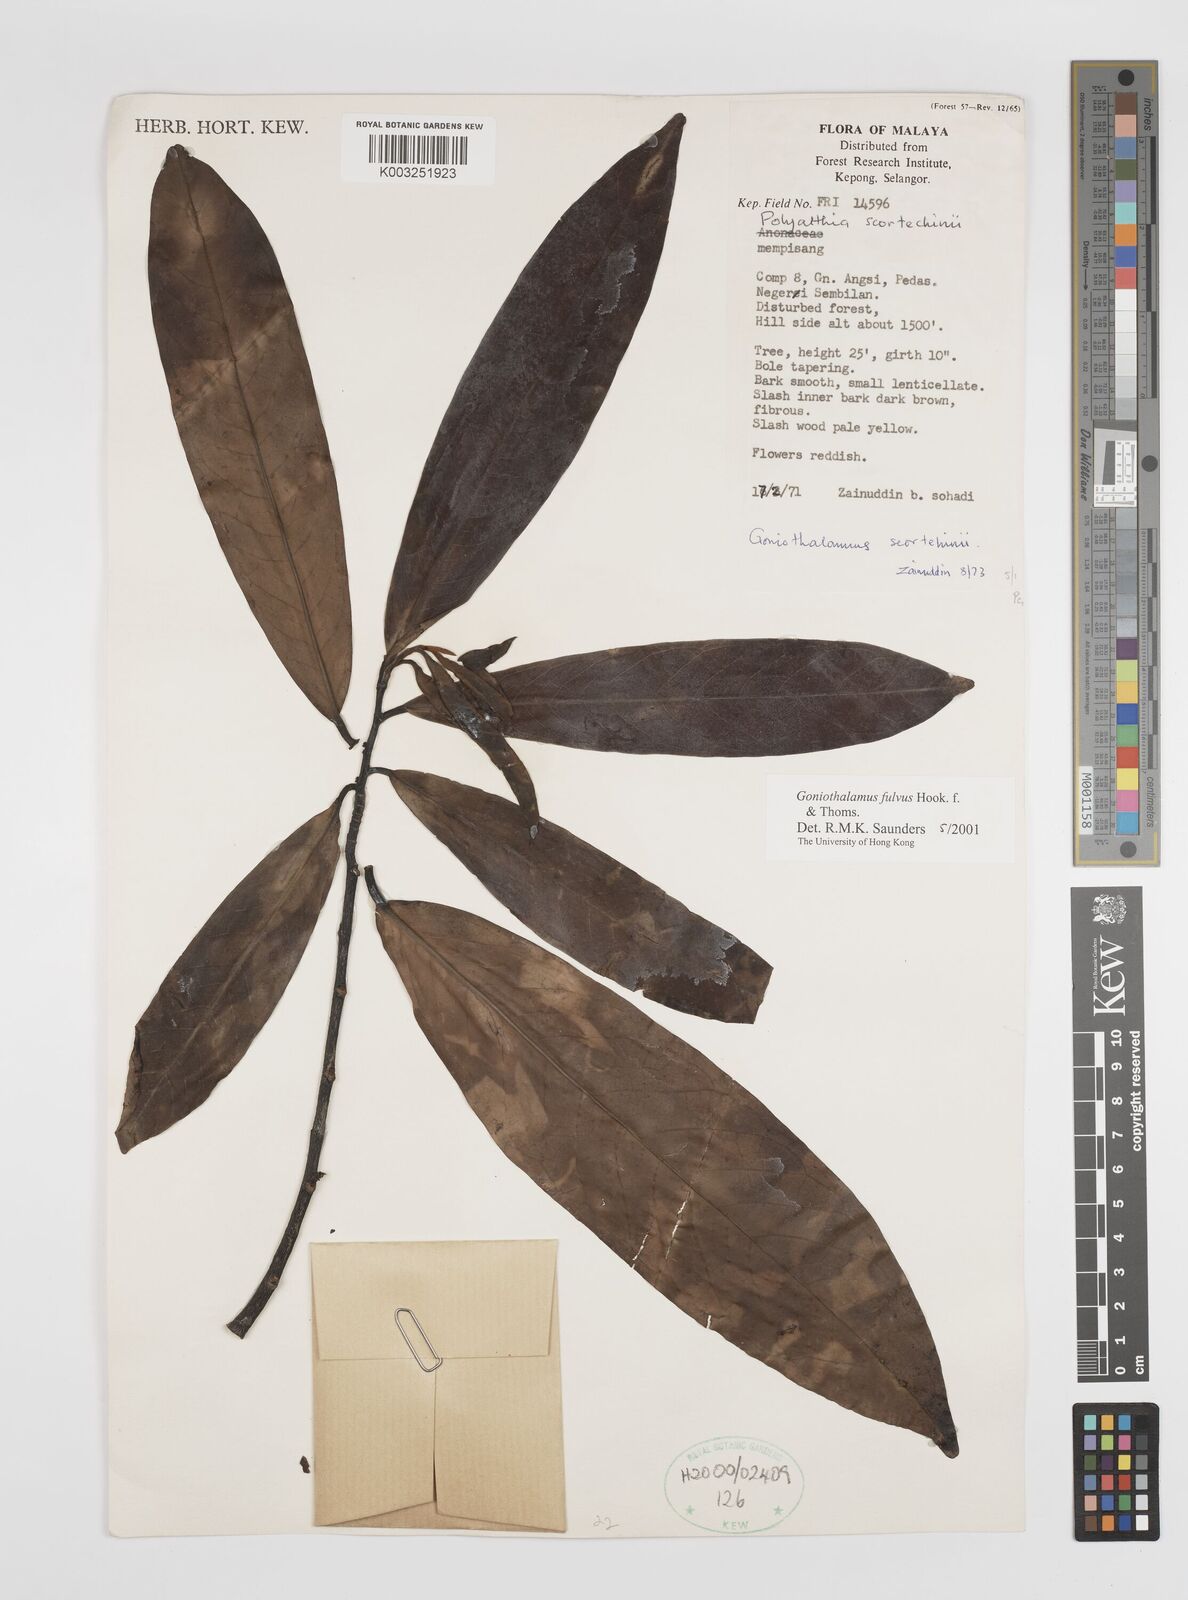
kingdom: Plantae
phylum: Tracheophyta
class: Magnoliopsida
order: Magnoliales
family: Annonaceae
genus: Goniothalamus
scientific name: Goniothalamus fulvus
